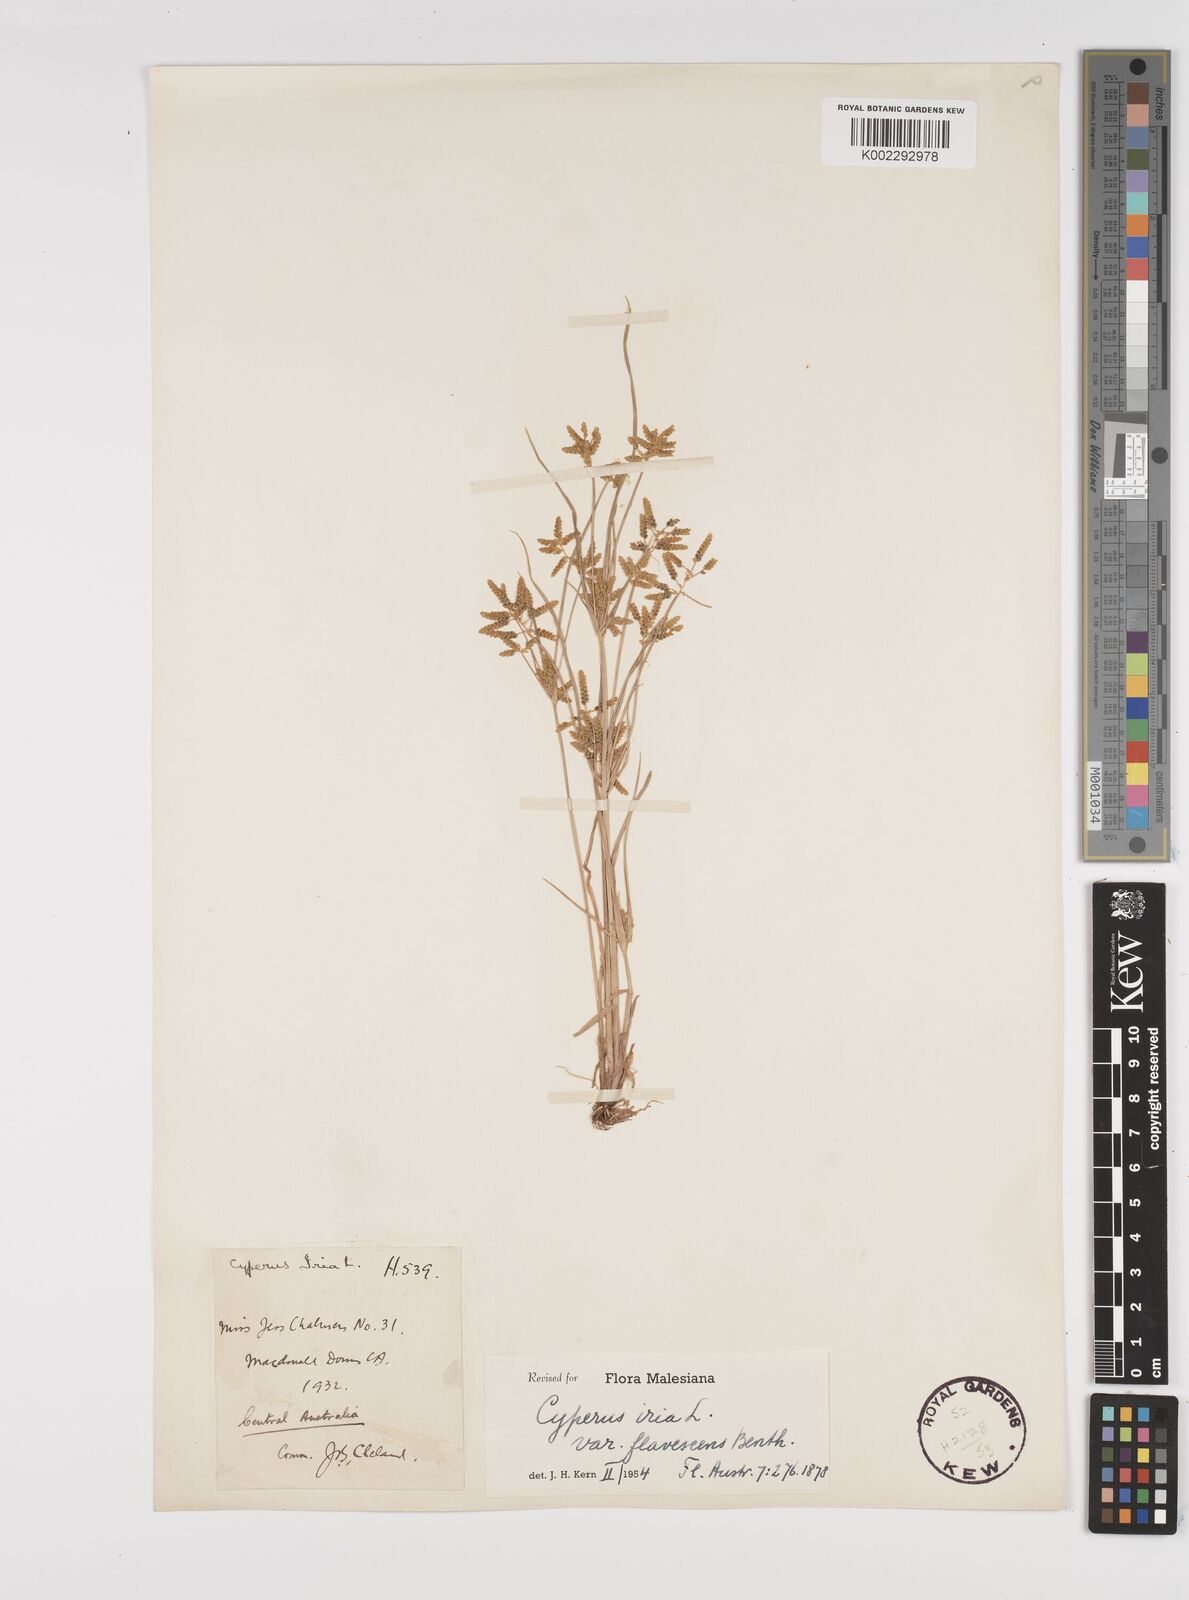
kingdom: Plantae
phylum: Tracheophyta
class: Liliopsida
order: Poales
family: Cyperaceae
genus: Cyperus
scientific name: Cyperus iria
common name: Ricefield flatsedge
